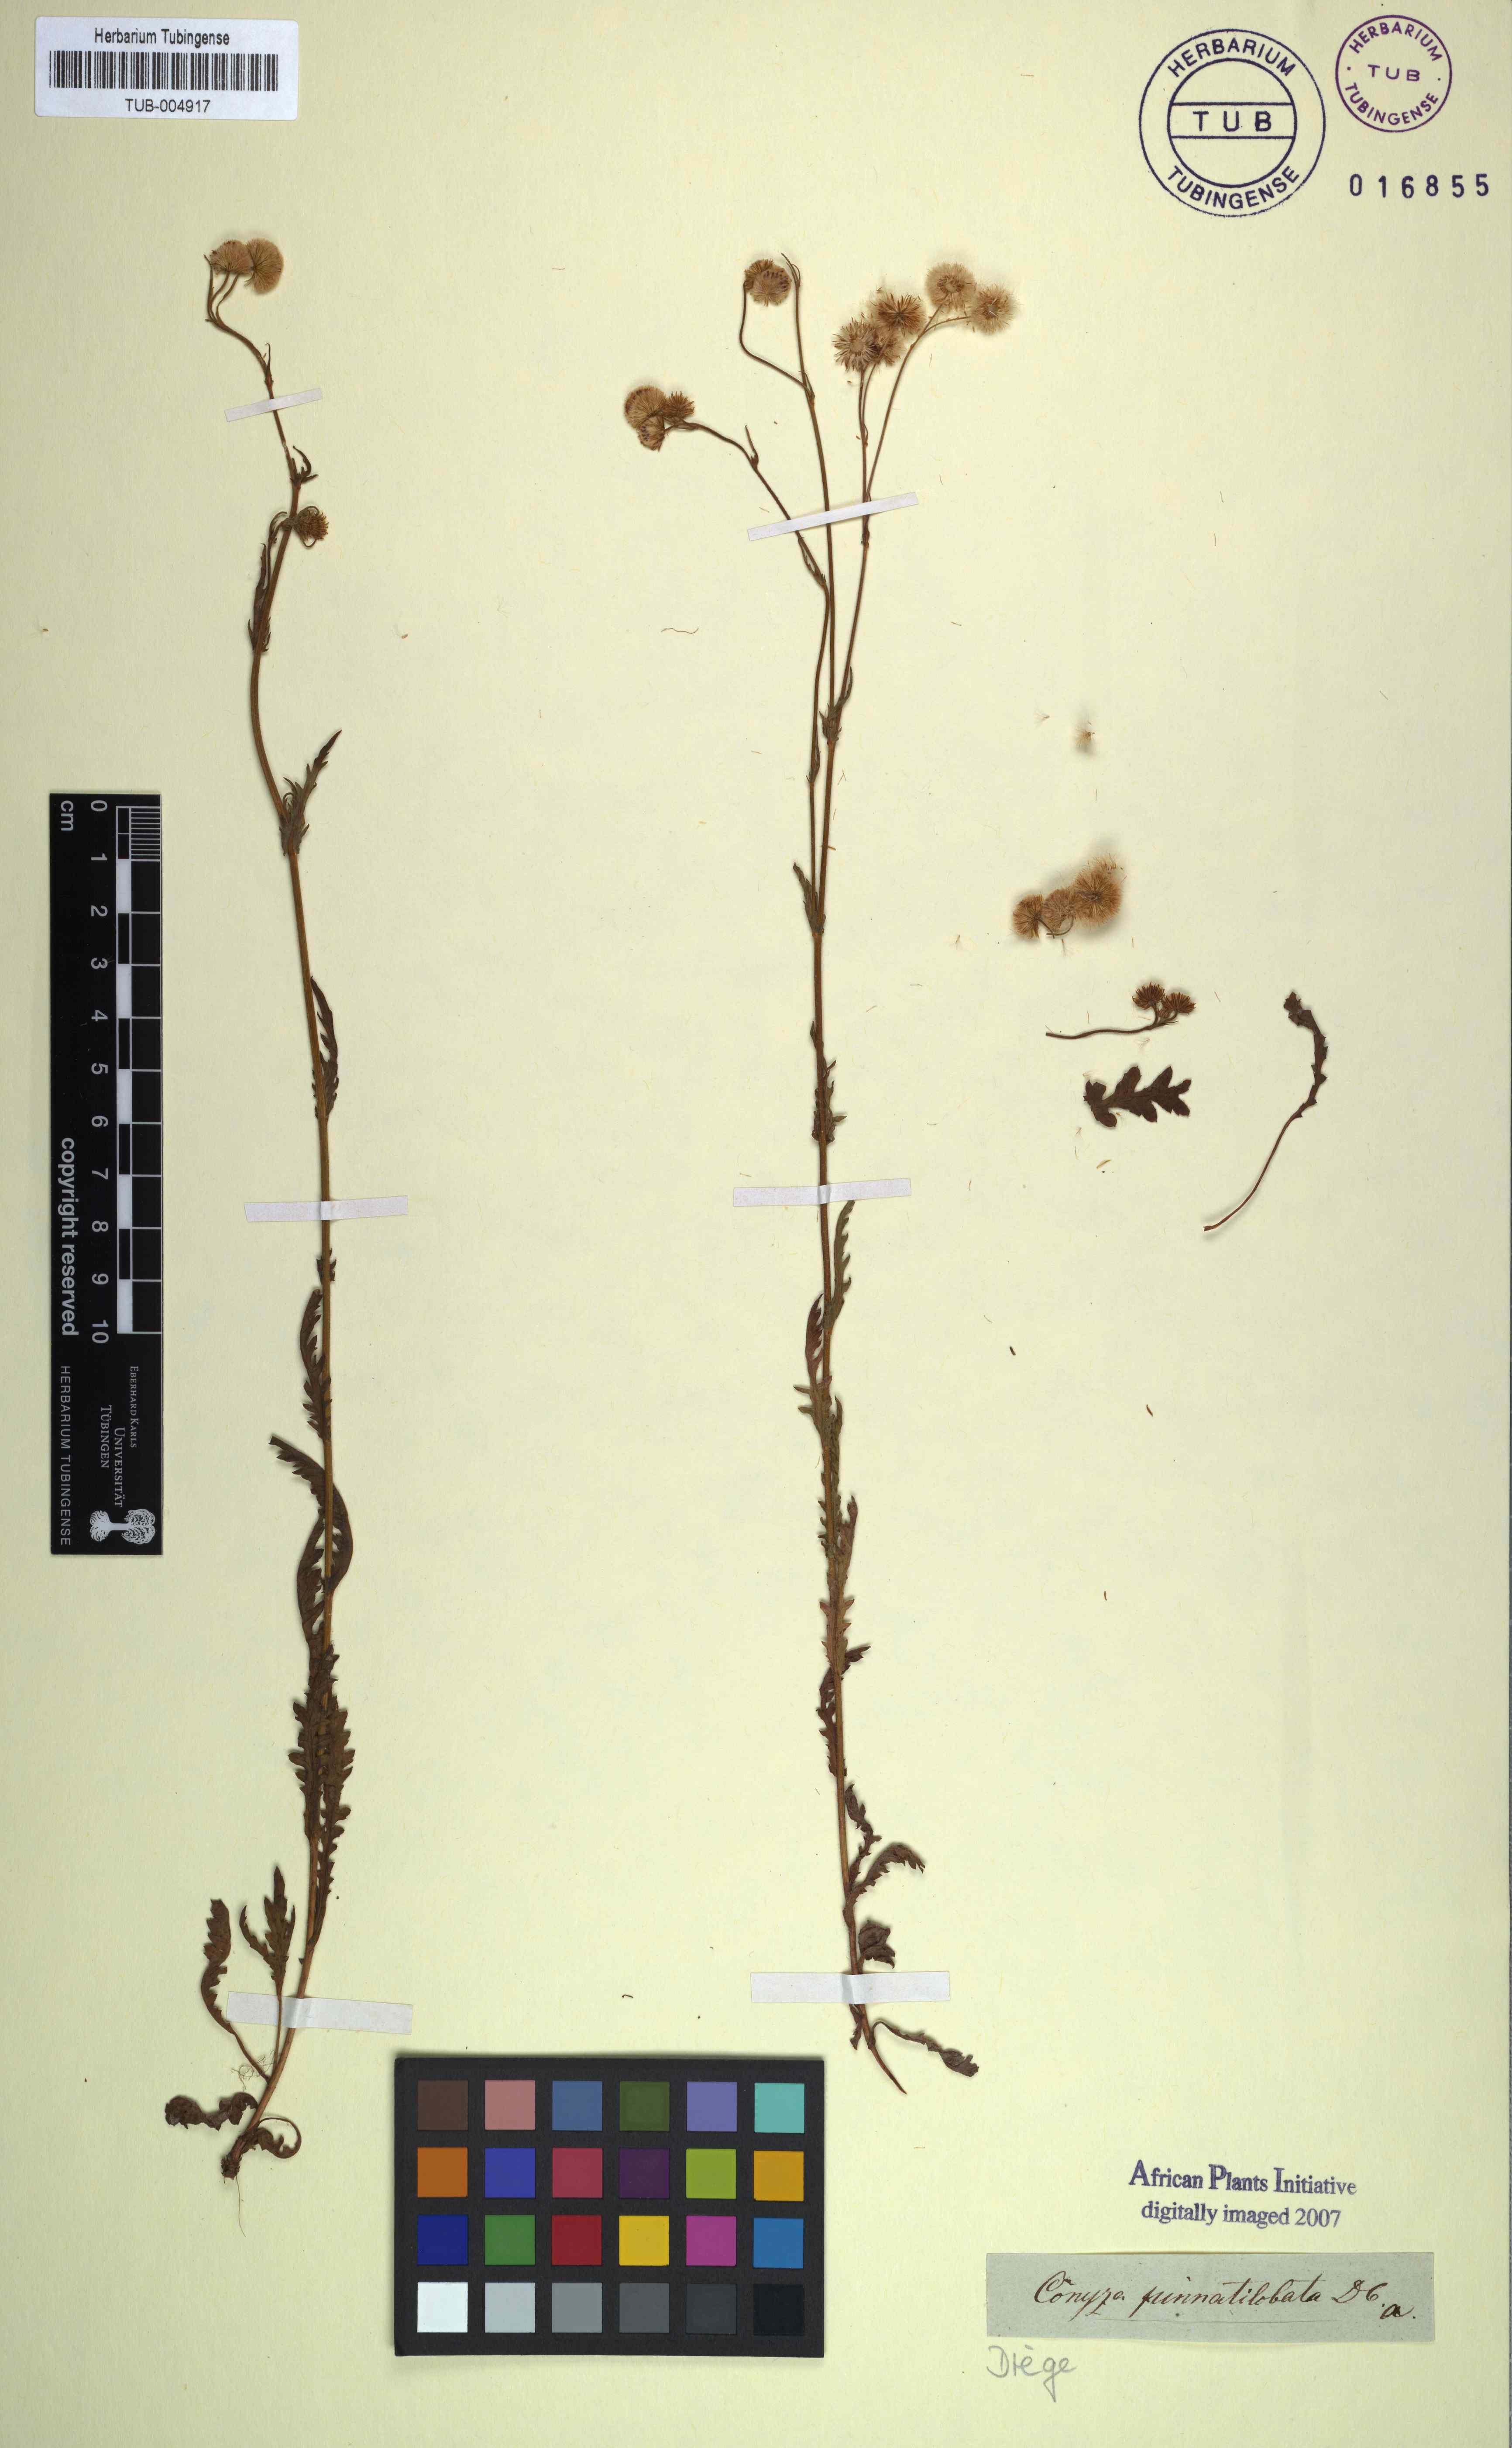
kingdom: Plantae
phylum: Tracheophyta
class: Magnoliopsida
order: Asterales
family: Asteraceae
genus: Nidorella
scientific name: Nidorella pinnata
